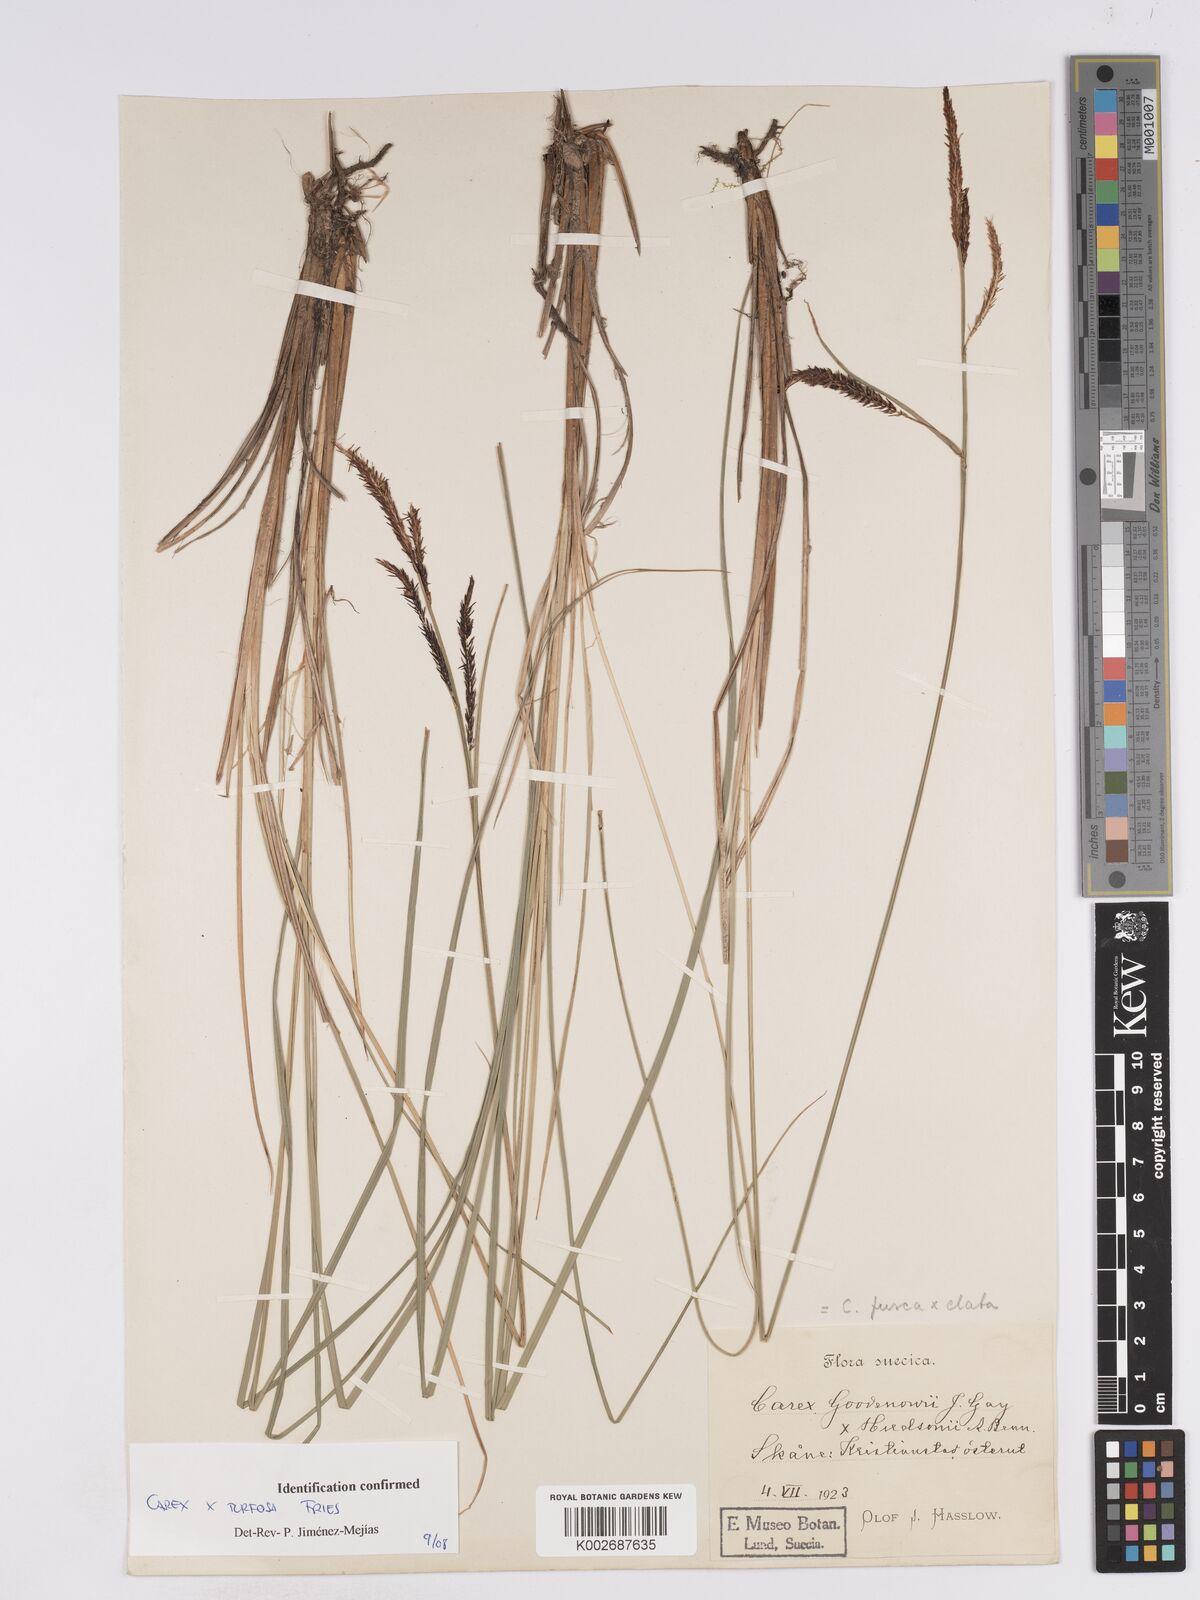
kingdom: Plantae
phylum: Tracheophyta
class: Liliopsida
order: Poales
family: Cyperaceae
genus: Carex
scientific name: Carex nigra
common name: Common sedge
